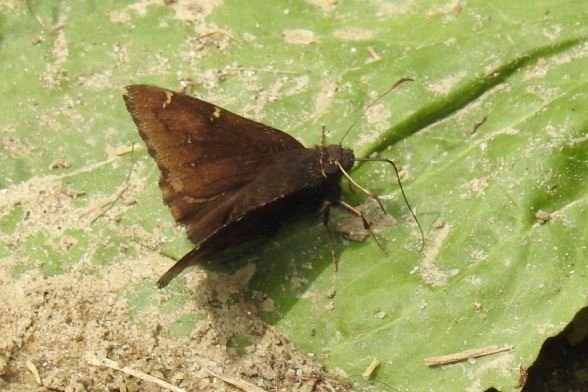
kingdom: Animalia
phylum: Arthropoda
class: Insecta
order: Lepidoptera
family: Hesperiidae
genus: Autochton
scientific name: Autochton
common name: Northern Cloudywing
